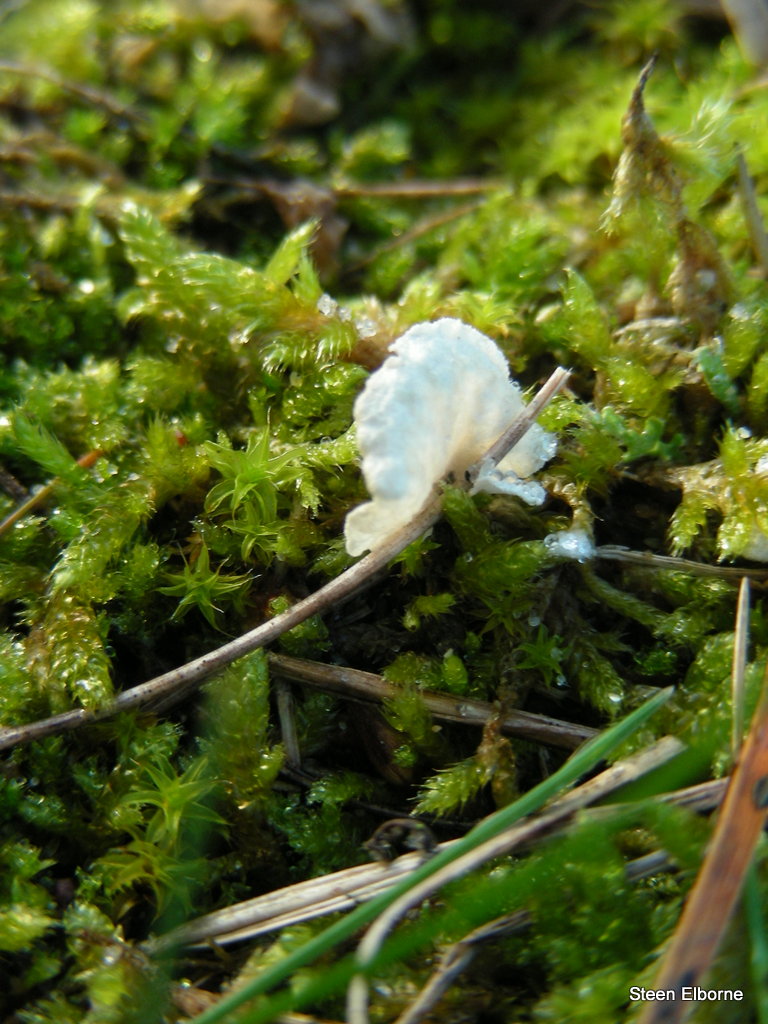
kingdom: Fungi
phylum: Basidiomycota
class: Agaricomycetes
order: Agaricales
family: Hygrophoraceae
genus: Arrhenia
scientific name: Arrhenia retiruga
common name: lille fontænehat
